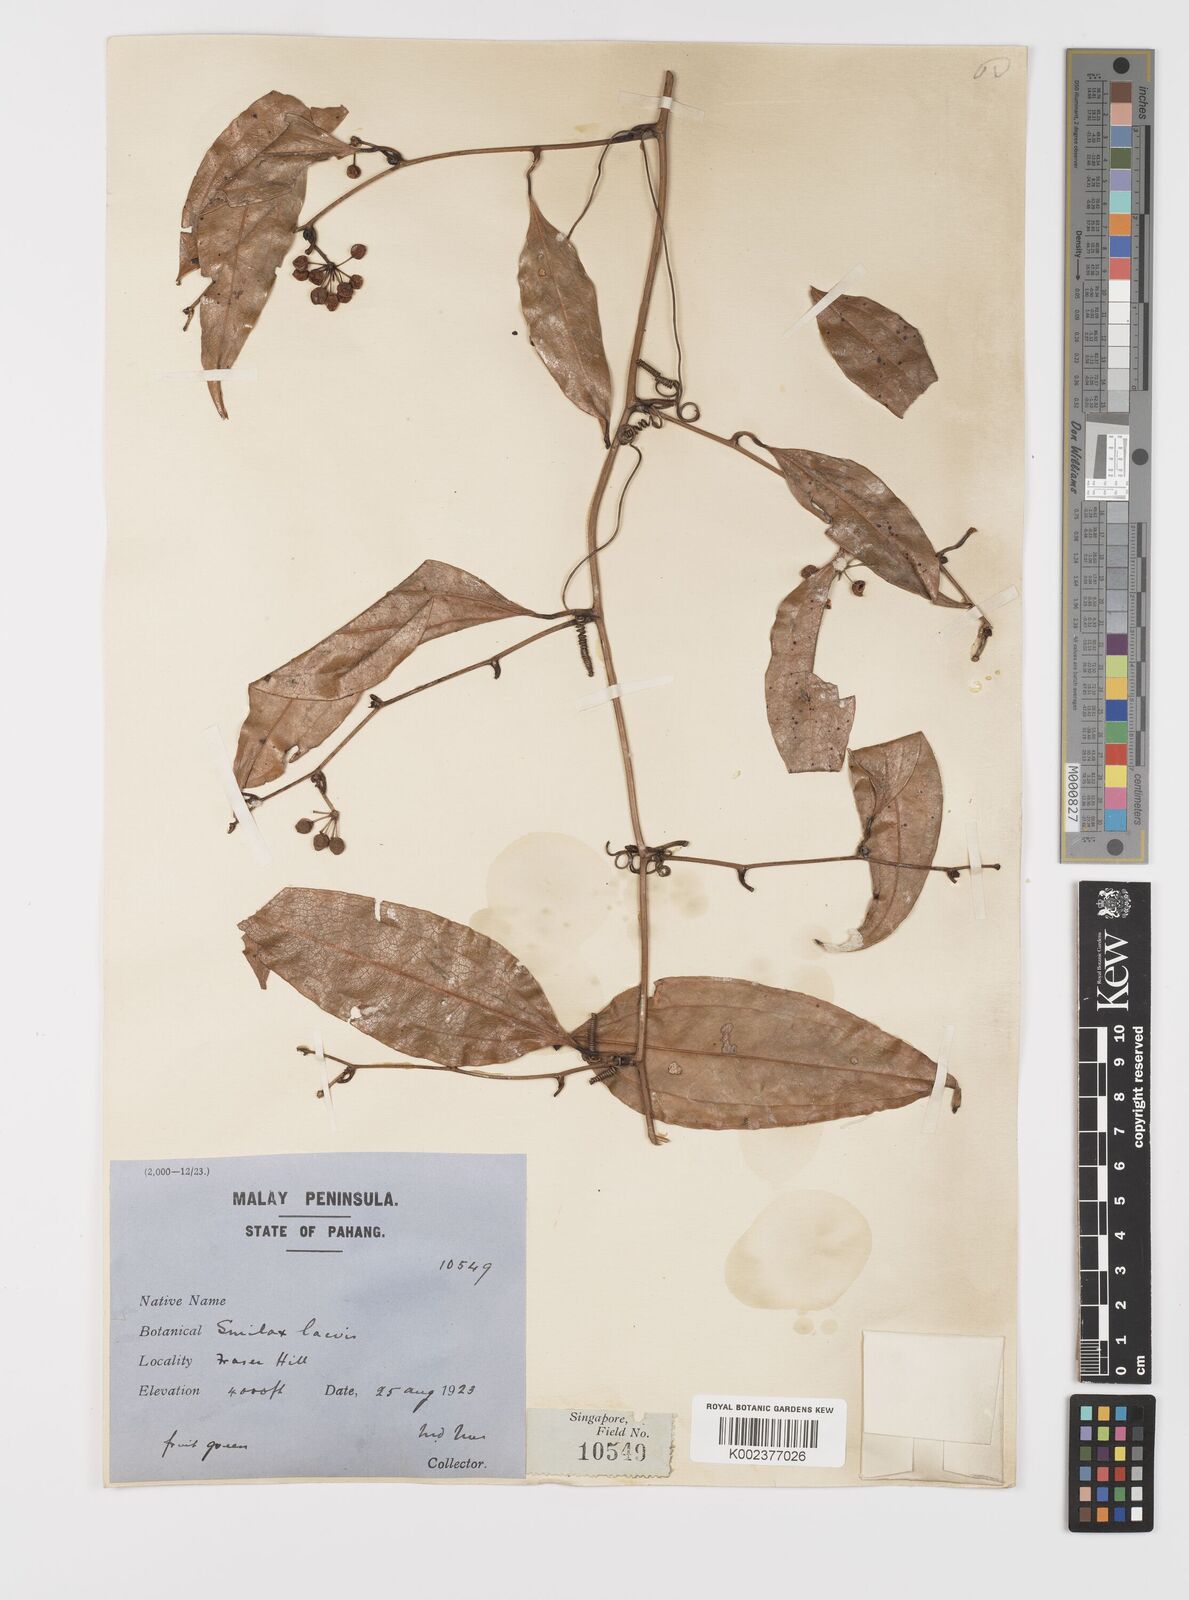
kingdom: Plantae
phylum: Tracheophyta
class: Liliopsida
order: Liliales
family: Smilacaceae
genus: Smilax
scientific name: Smilax laevis
